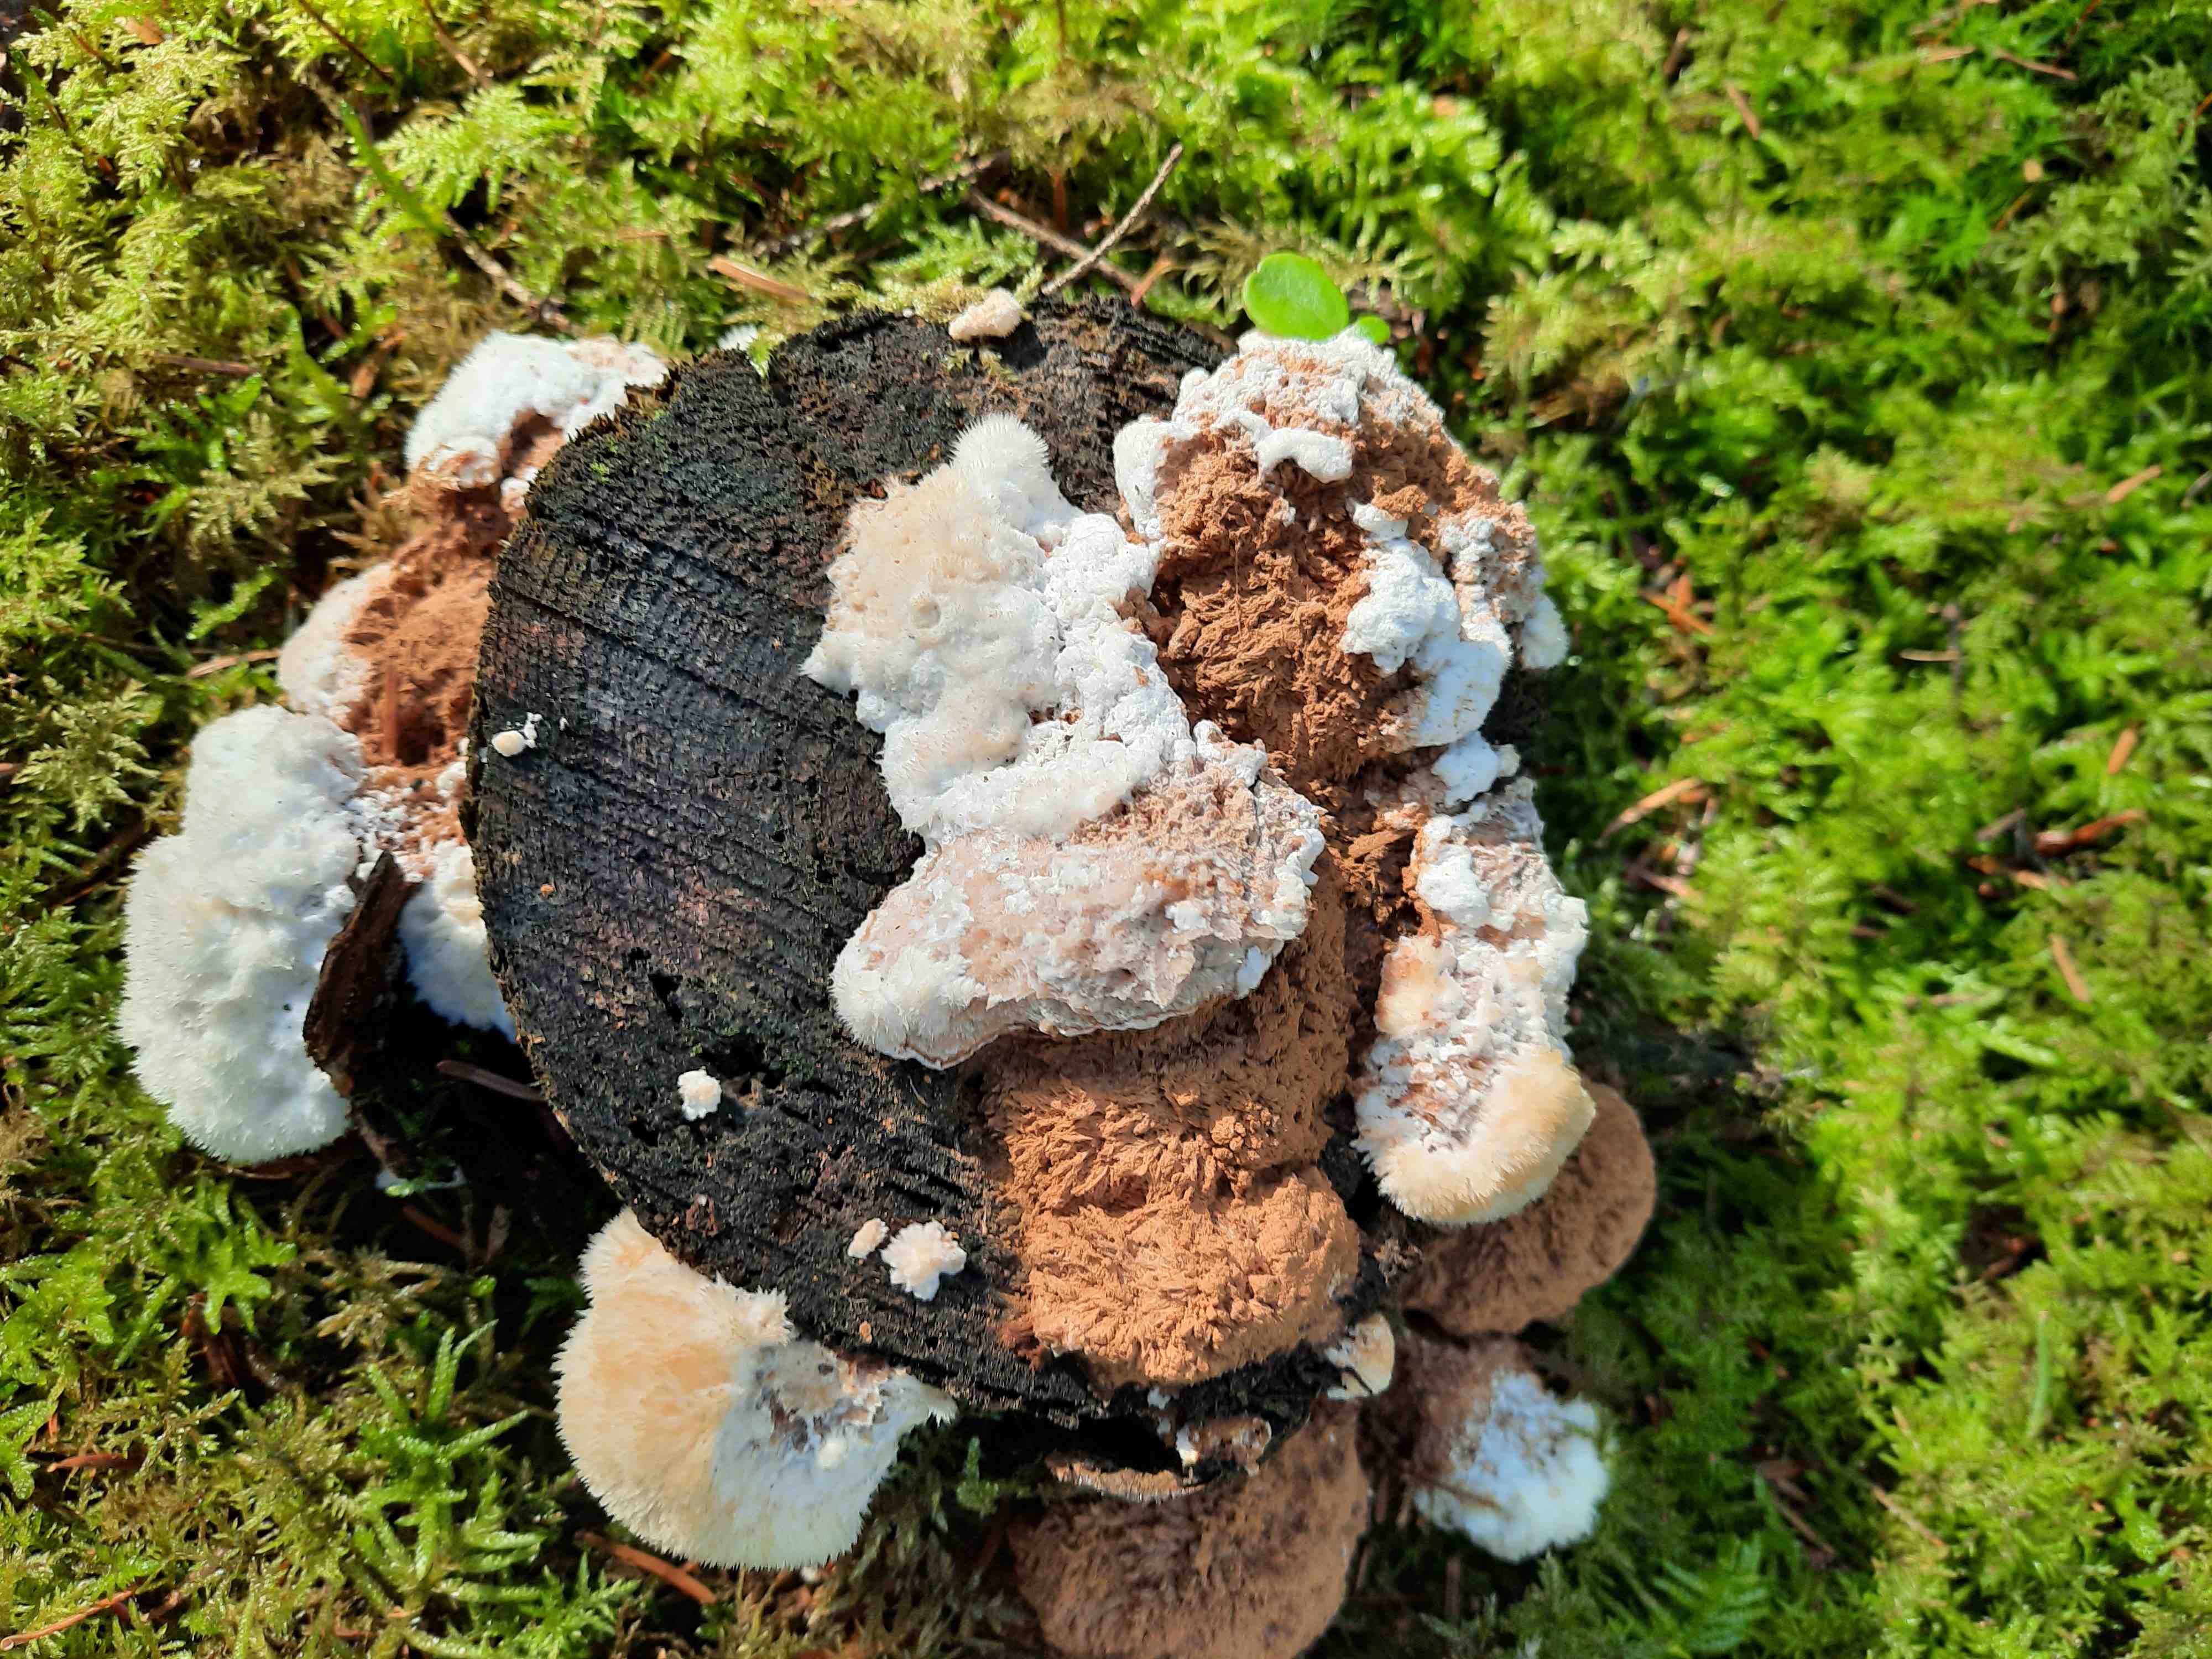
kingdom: Fungi
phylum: Basidiomycota
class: Agaricomycetes
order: Polyporales
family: Dacryobolaceae
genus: Postia
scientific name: Postia ptychogaster
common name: støvende kødporesvamp
